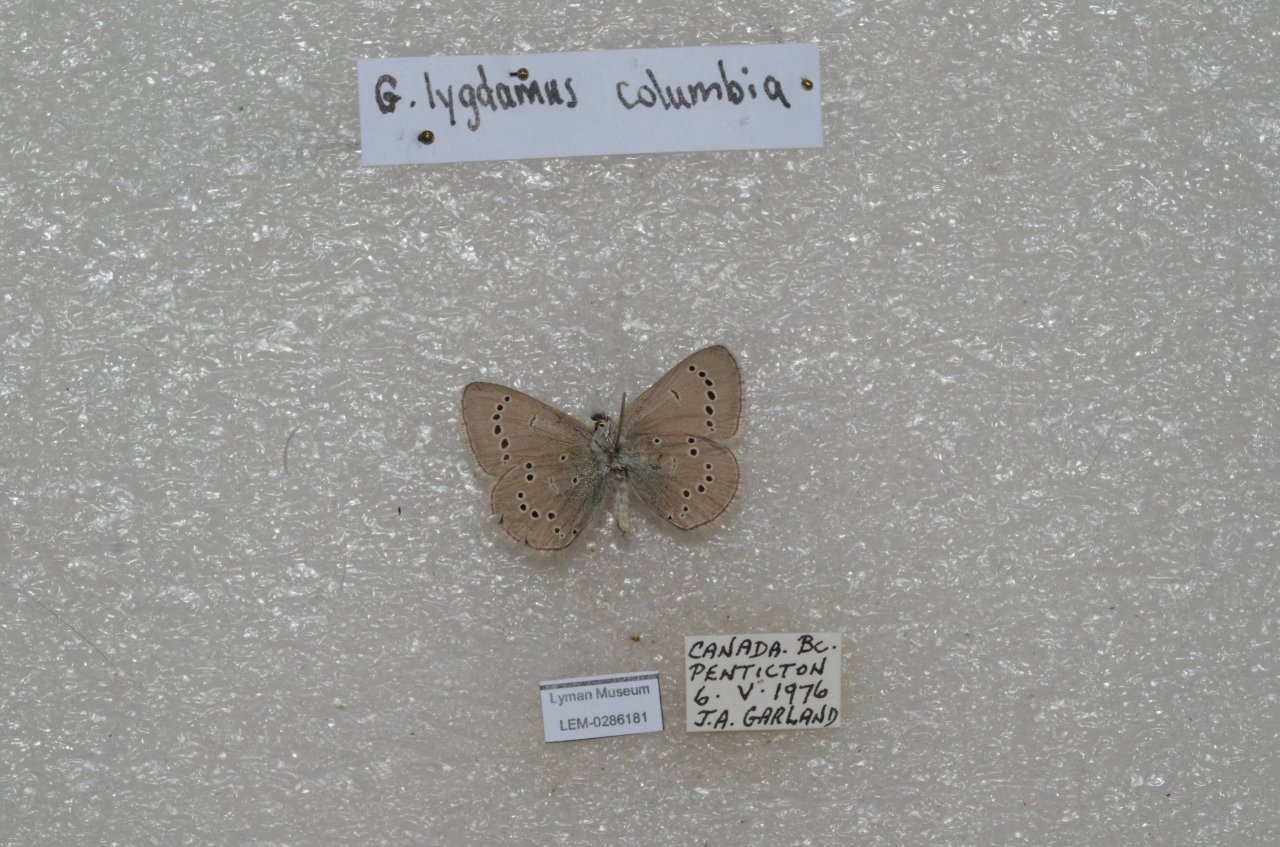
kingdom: Animalia
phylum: Arthropoda
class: Insecta
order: Lepidoptera
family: Lycaenidae
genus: Glaucopsyche
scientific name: Glaucopsyche lygdamus
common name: Silvery Blue
